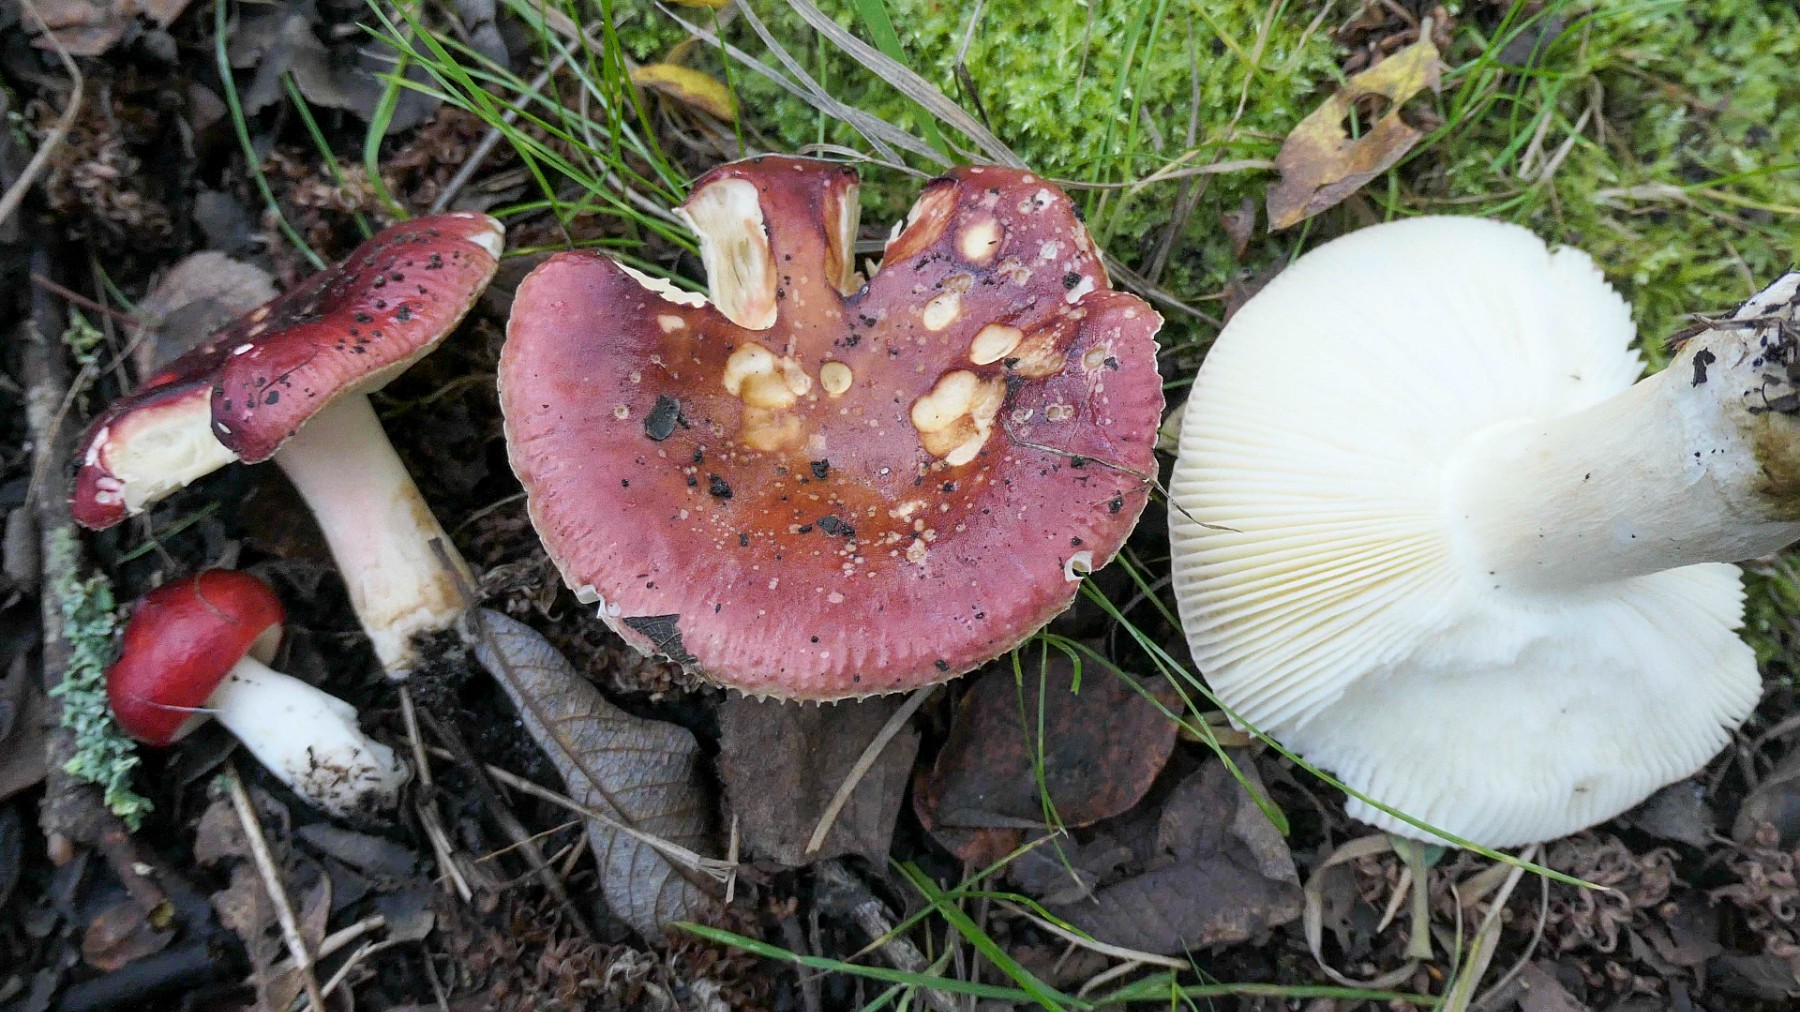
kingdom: Fungi
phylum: Basidiomycota
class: Agaricomycetes
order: Russulales
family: Russulaceae
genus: Russula
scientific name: Russula subrubens
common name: pile-skørhat
